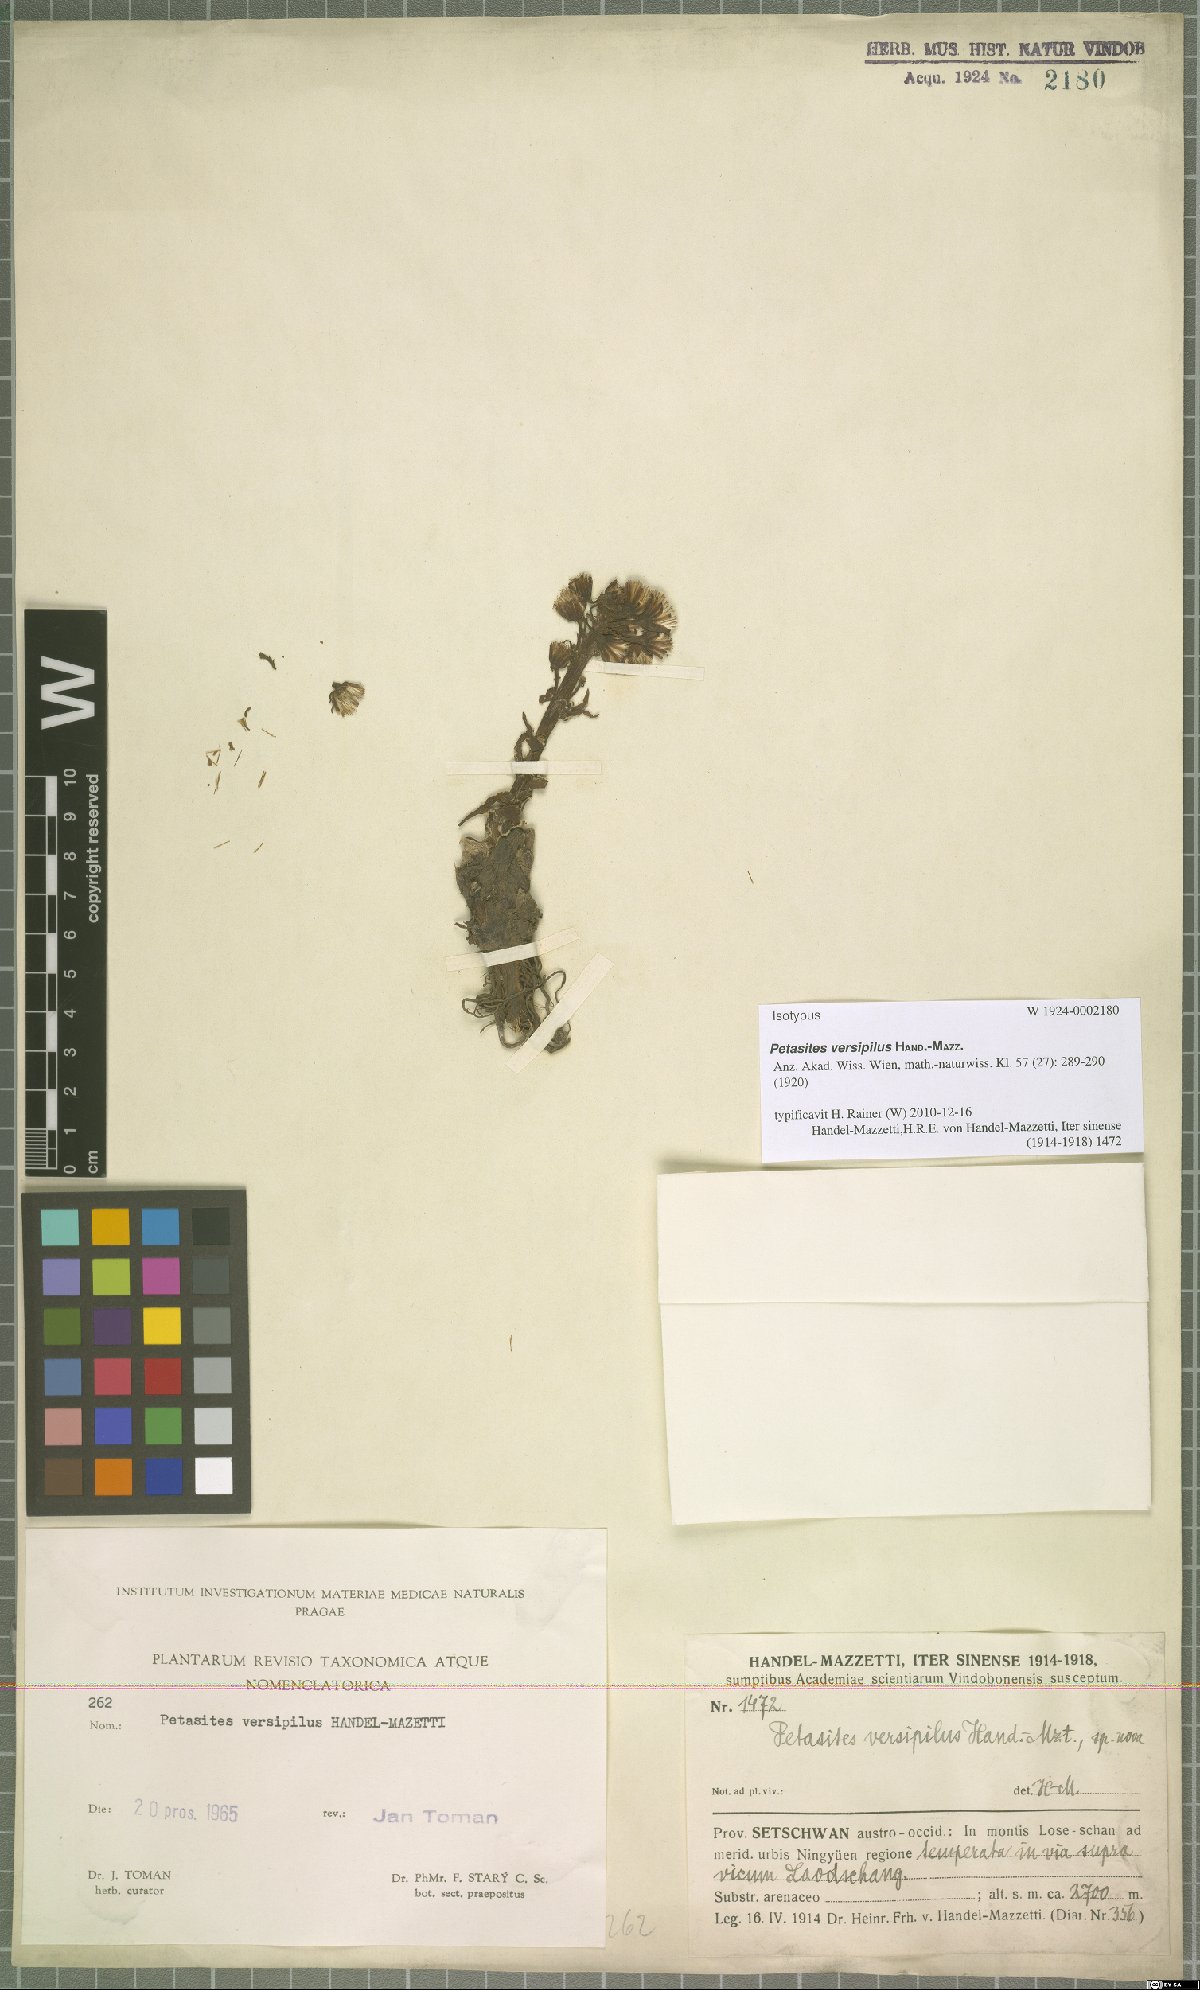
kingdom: Plantae
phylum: Tracheophyta
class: Magnoliopsida
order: Asterales
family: Asteraceae
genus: Petasites
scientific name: Petasites versipilus
